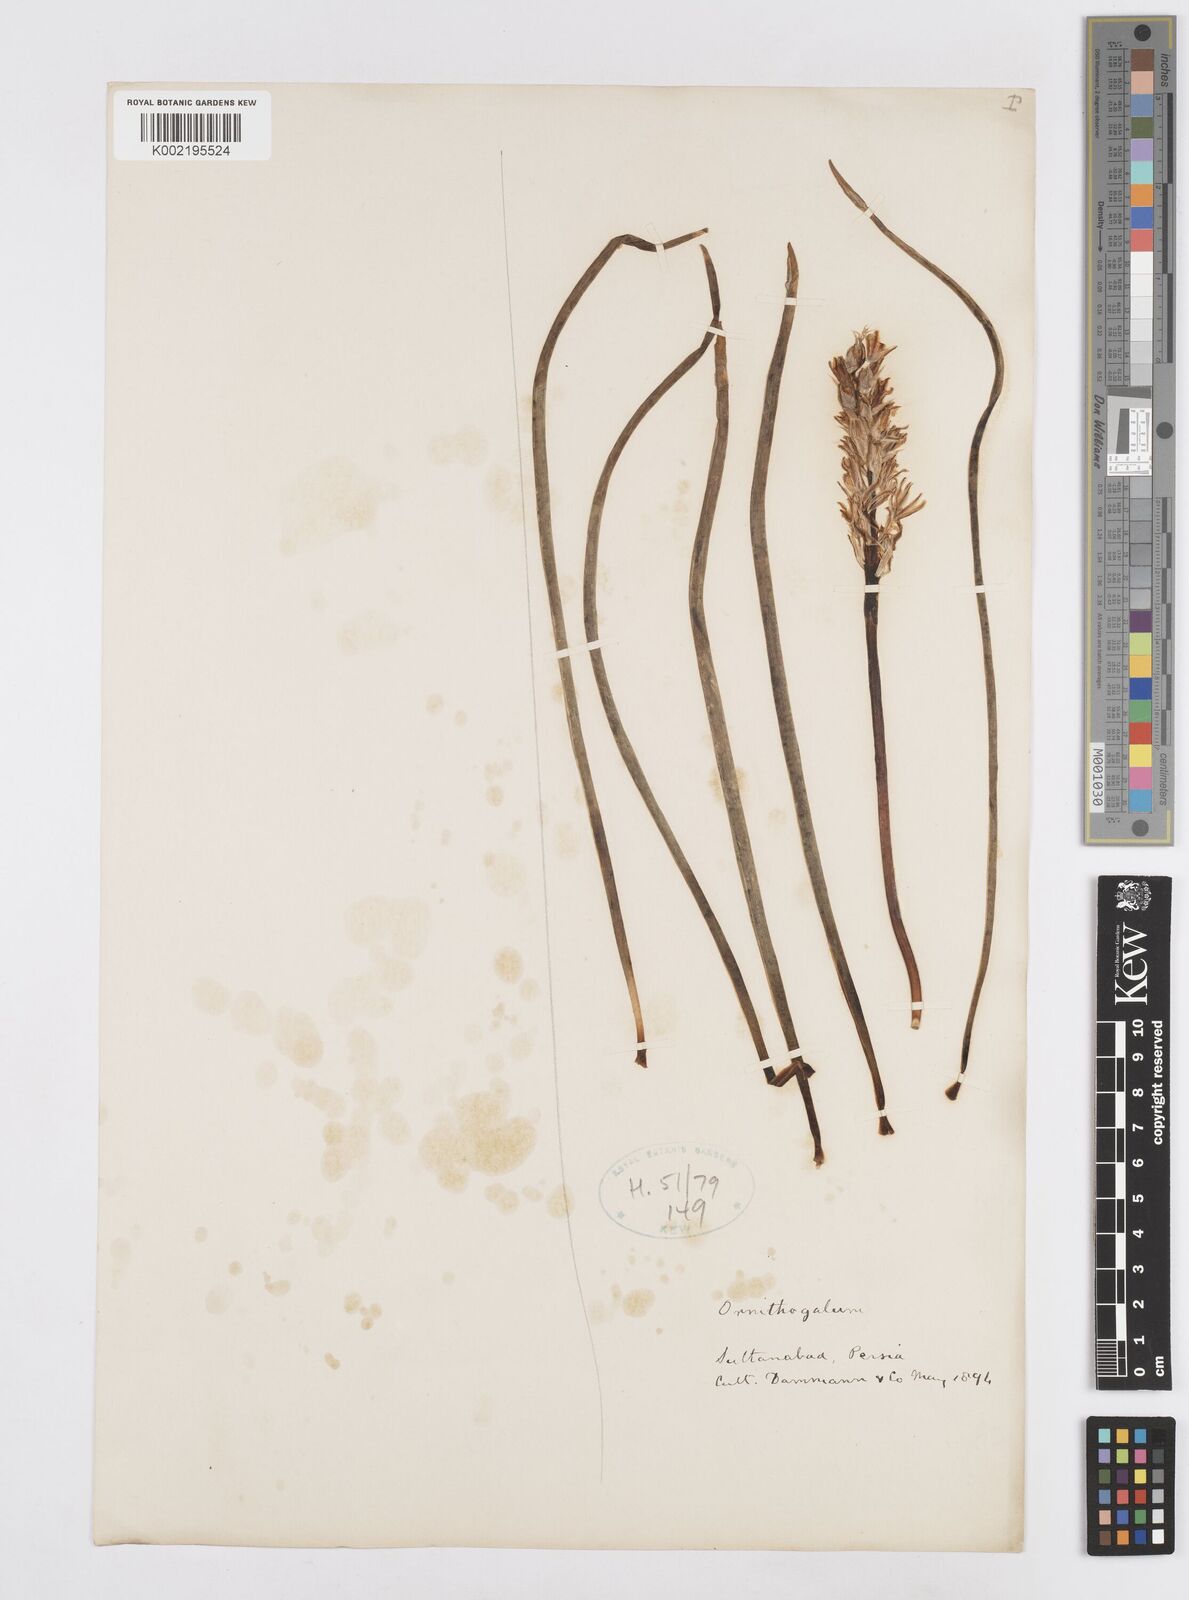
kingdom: Plantae
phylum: Tracheophyta
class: Liliopsida
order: Asparagales
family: Asparagaceae
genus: Ornithogalum
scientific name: Ornithogalum
